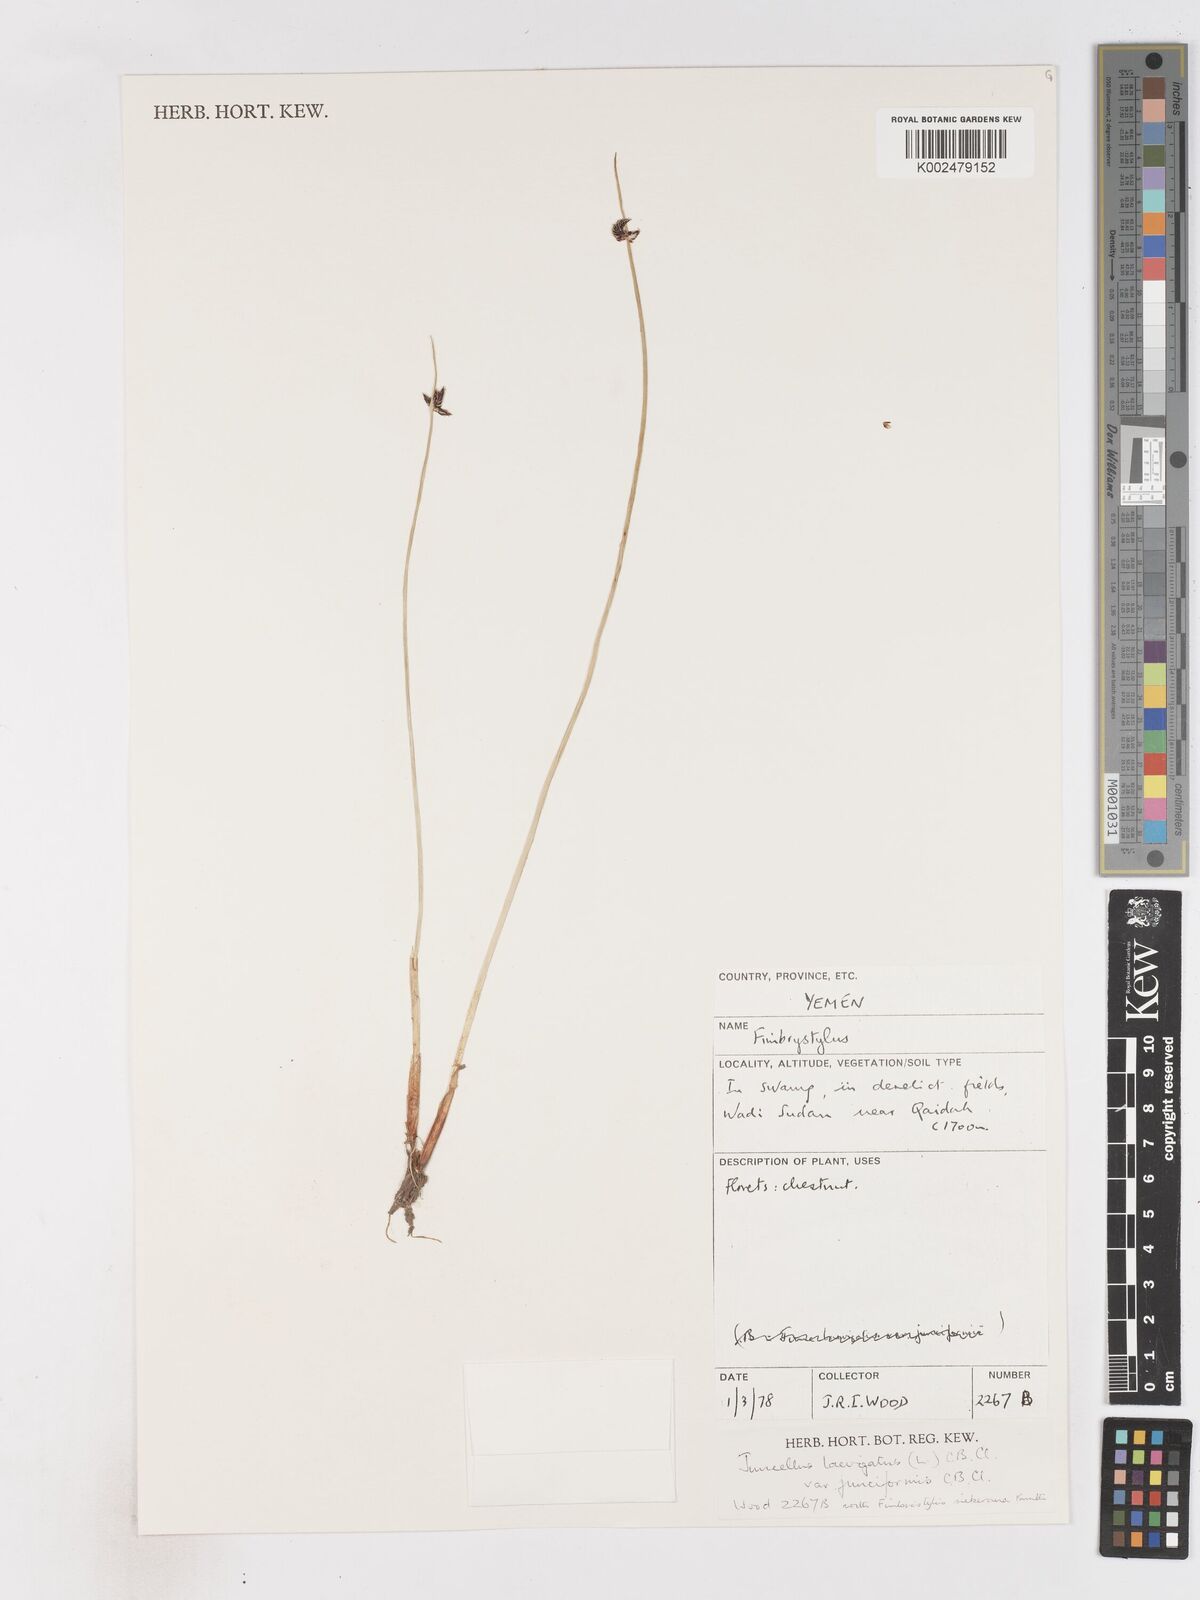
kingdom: Plantae
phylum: Tracheophyta
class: Liliopsida
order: Poales
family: Cyperaceae
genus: Cyperus
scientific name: Cyperus laevigatus
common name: Smooth flat sedge
